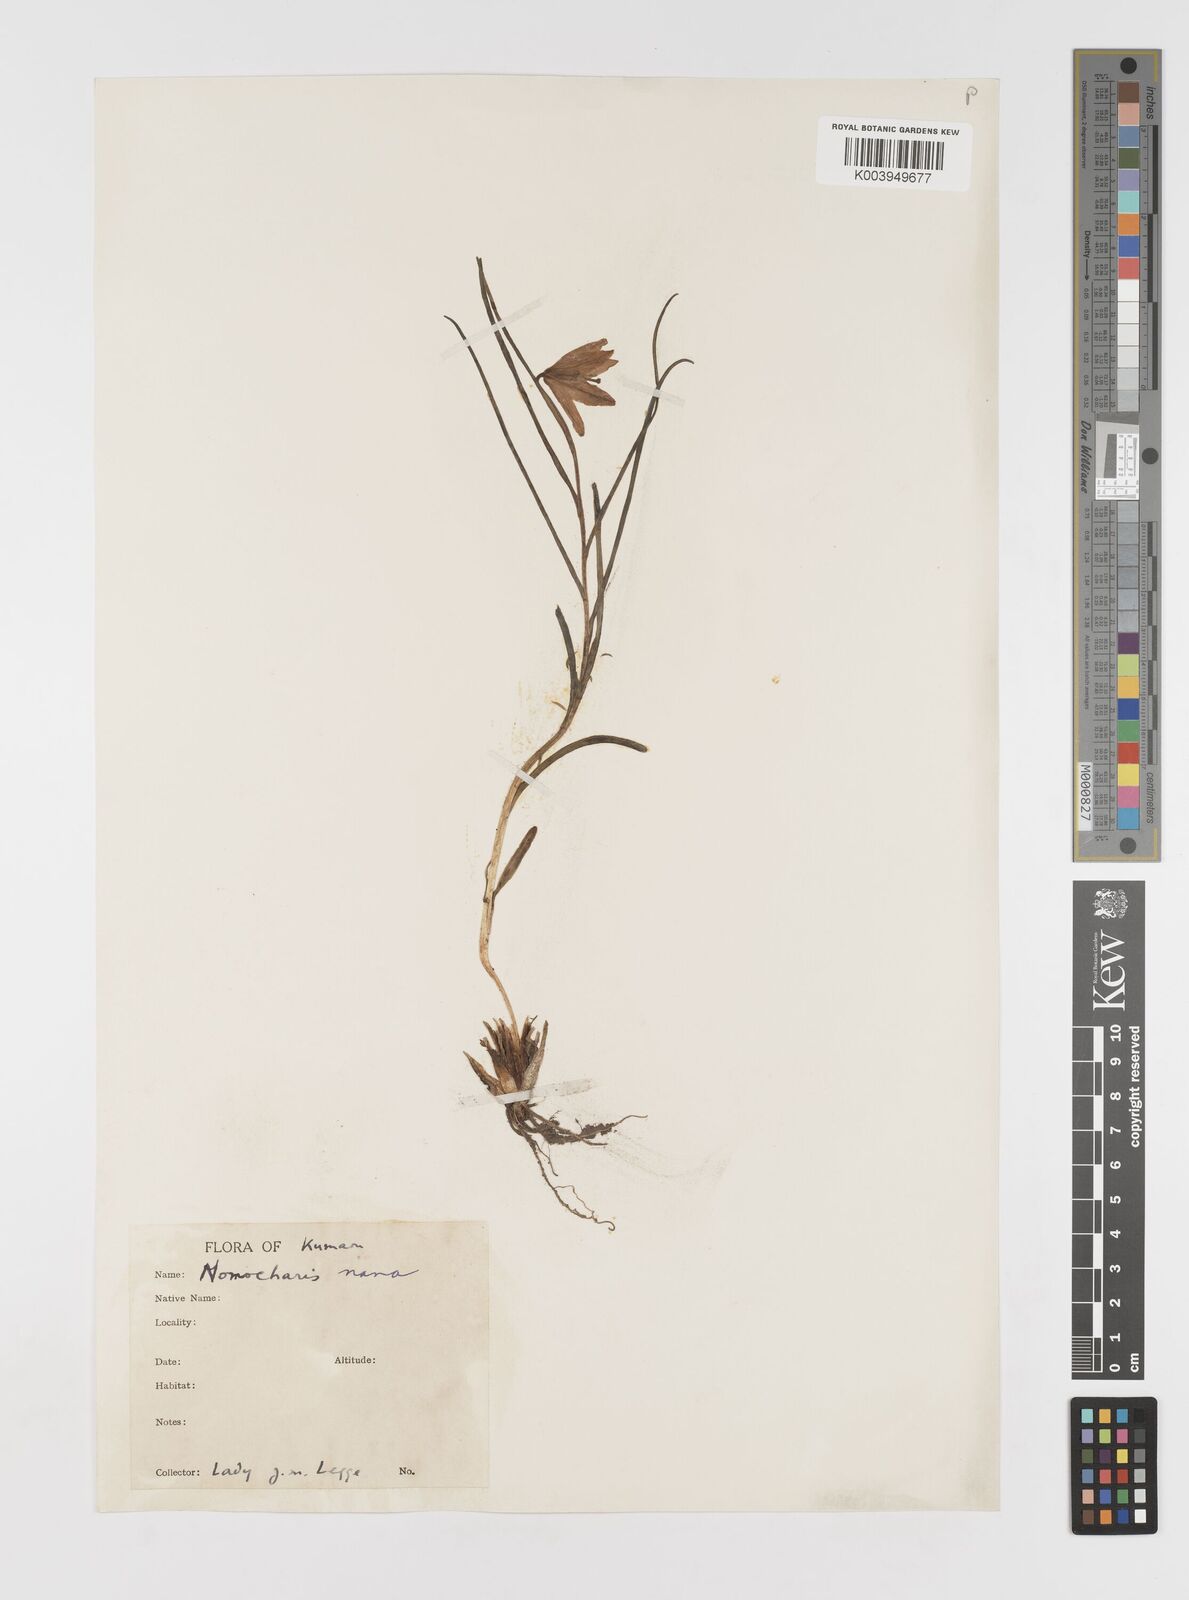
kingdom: Plantae
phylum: Tracheophyta
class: Liliopsida
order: Liliales
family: Liliaceae
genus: Lilium
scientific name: Lilium nanum
